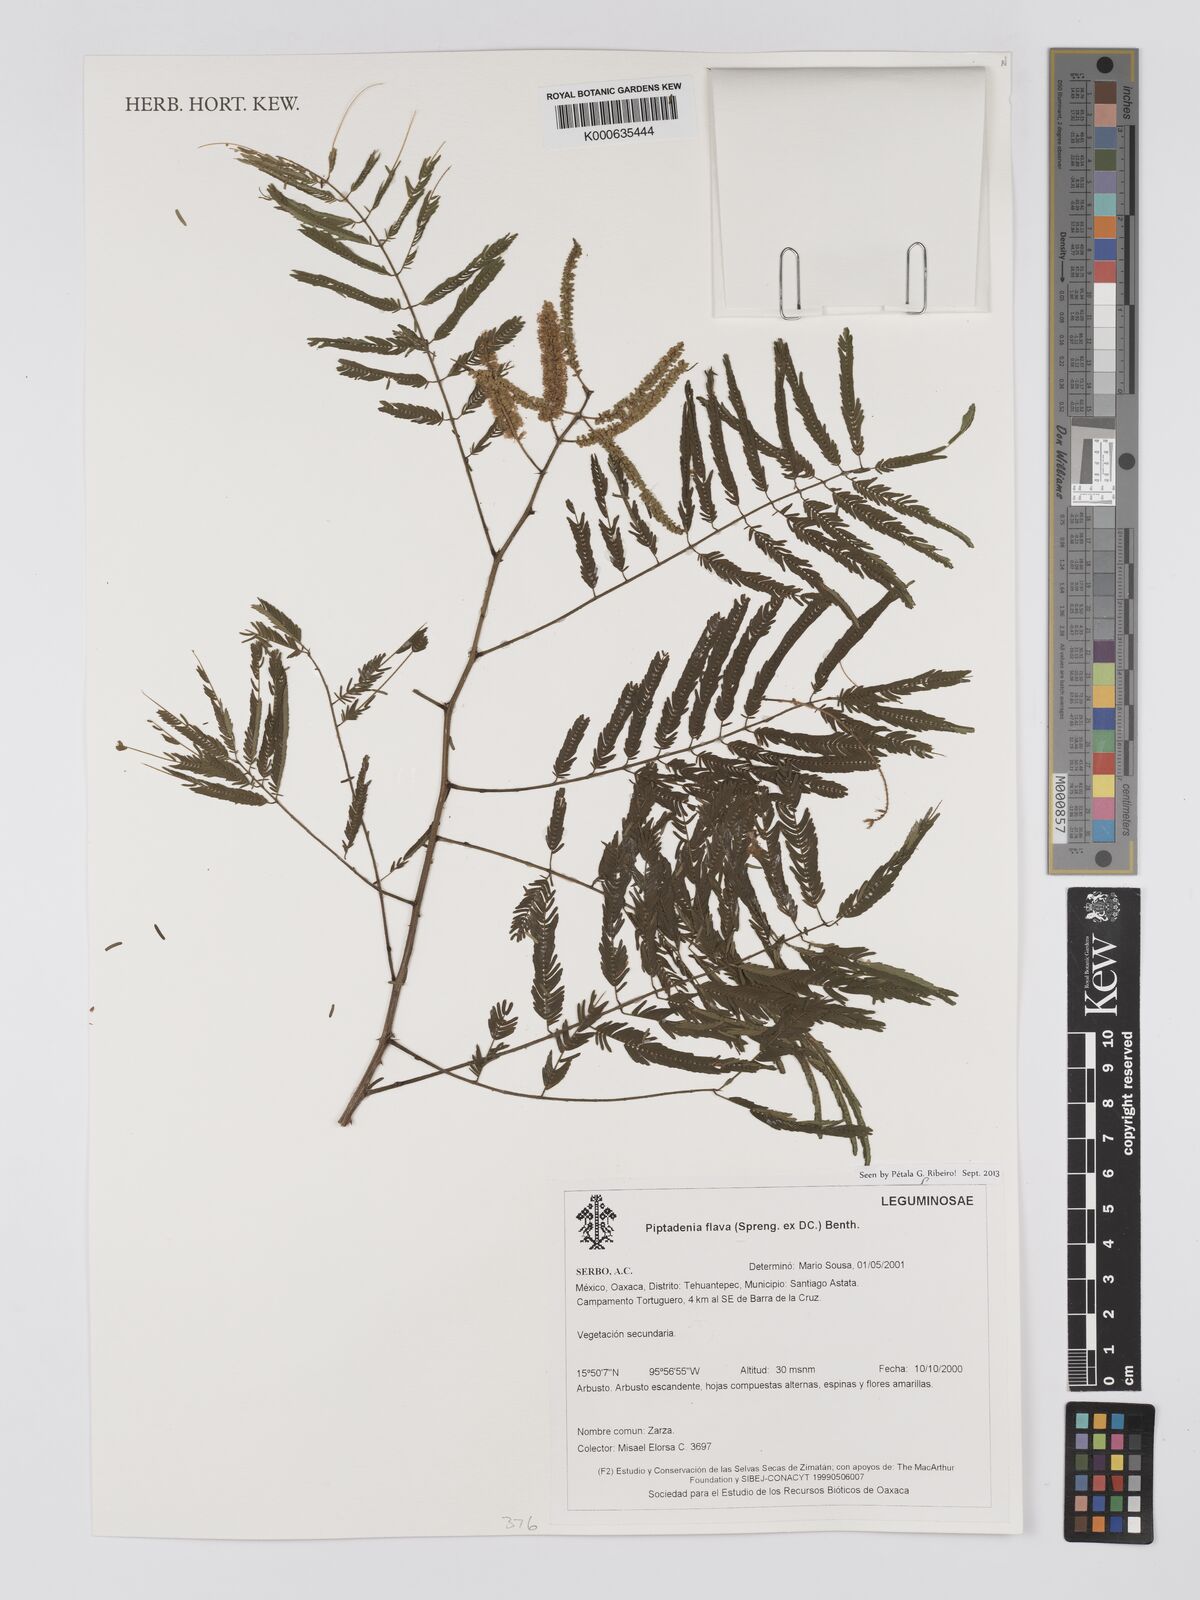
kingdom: Plantae
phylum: Tracheophyta
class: Magnoliopsida
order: Fabales
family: Fabaceae
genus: Piptadenia
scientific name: Piptadenia retusa
